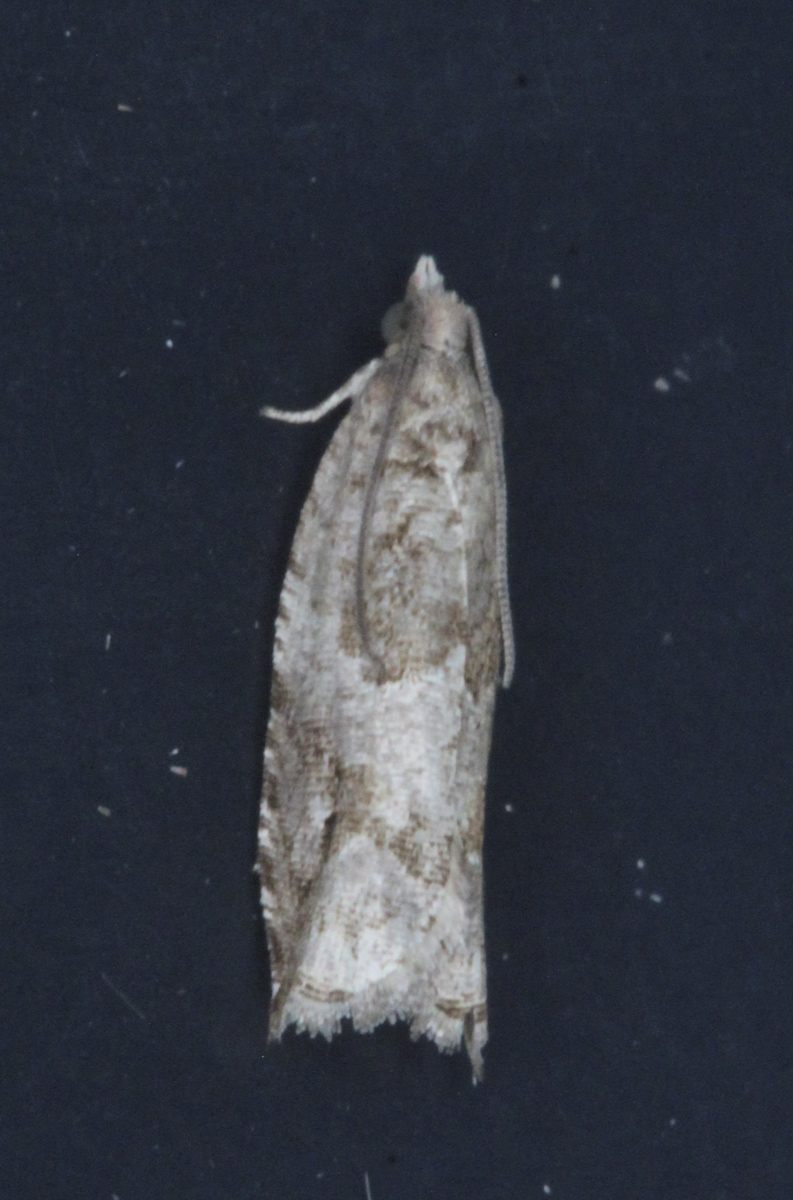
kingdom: Animalia
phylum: Arthropoda
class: Insecta
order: Lepidoptera
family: Tortricidae
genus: Epinotia
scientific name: Epinotia solandriana
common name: Variable bell
